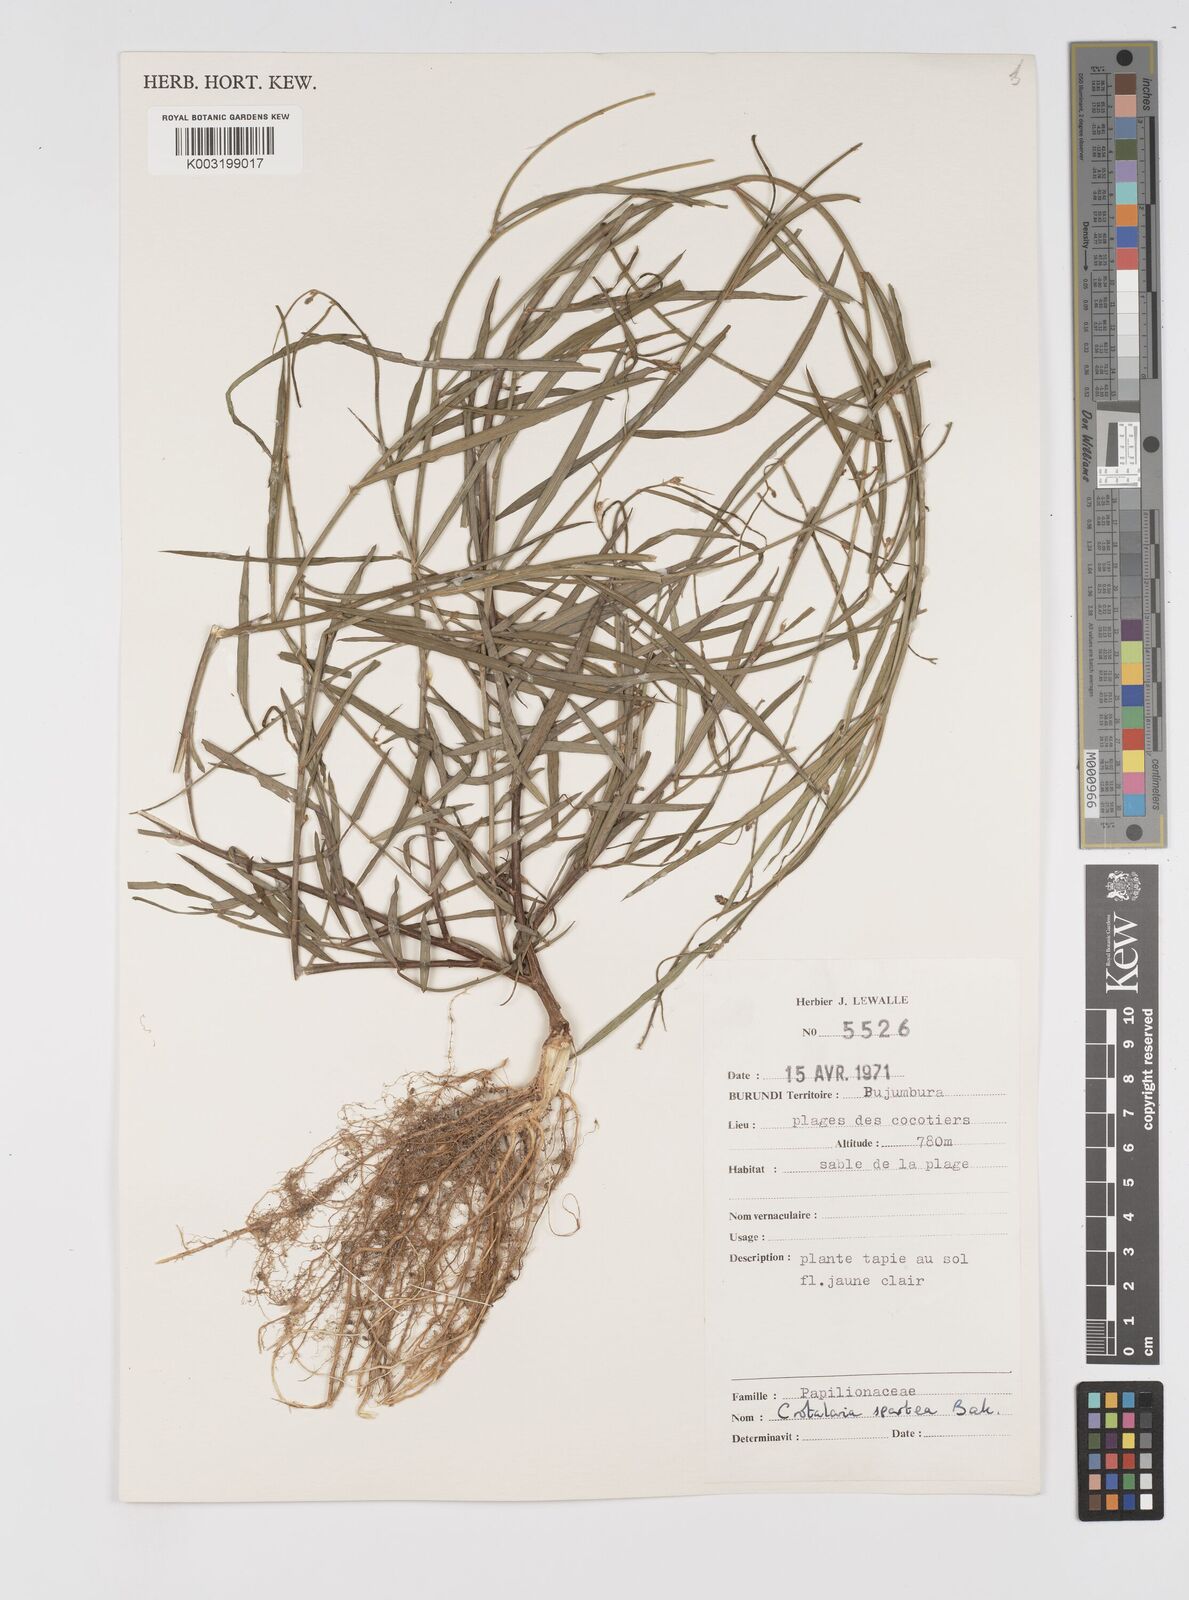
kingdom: Plantae
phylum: Tracheophyta
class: Magnoliopsida
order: Fabales
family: Fabaceae
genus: Crotalaria
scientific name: Crotalaria spartea
